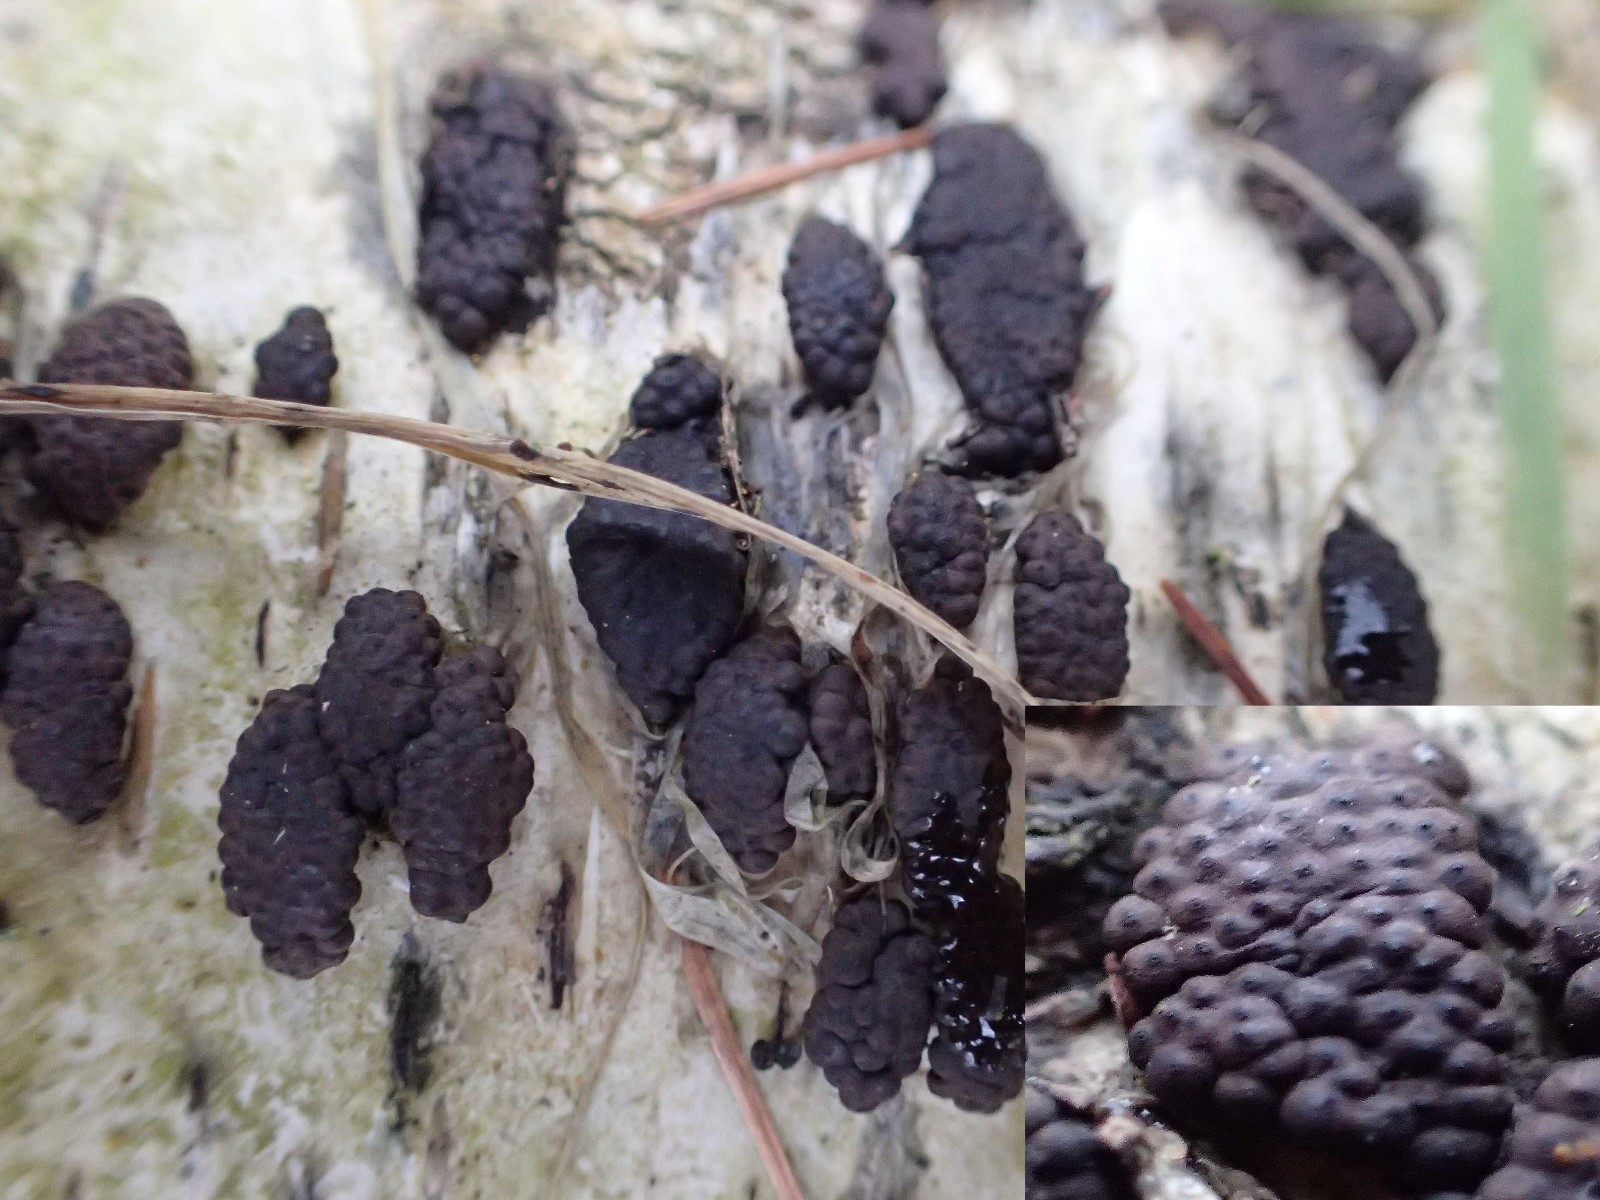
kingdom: Fungi
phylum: Ascomycota
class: Sordariomycetes
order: Xylariales
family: Hypoxylaceae
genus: Jackrogersella
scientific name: Jackrogersella multiformis
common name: foranderlig kulbær
